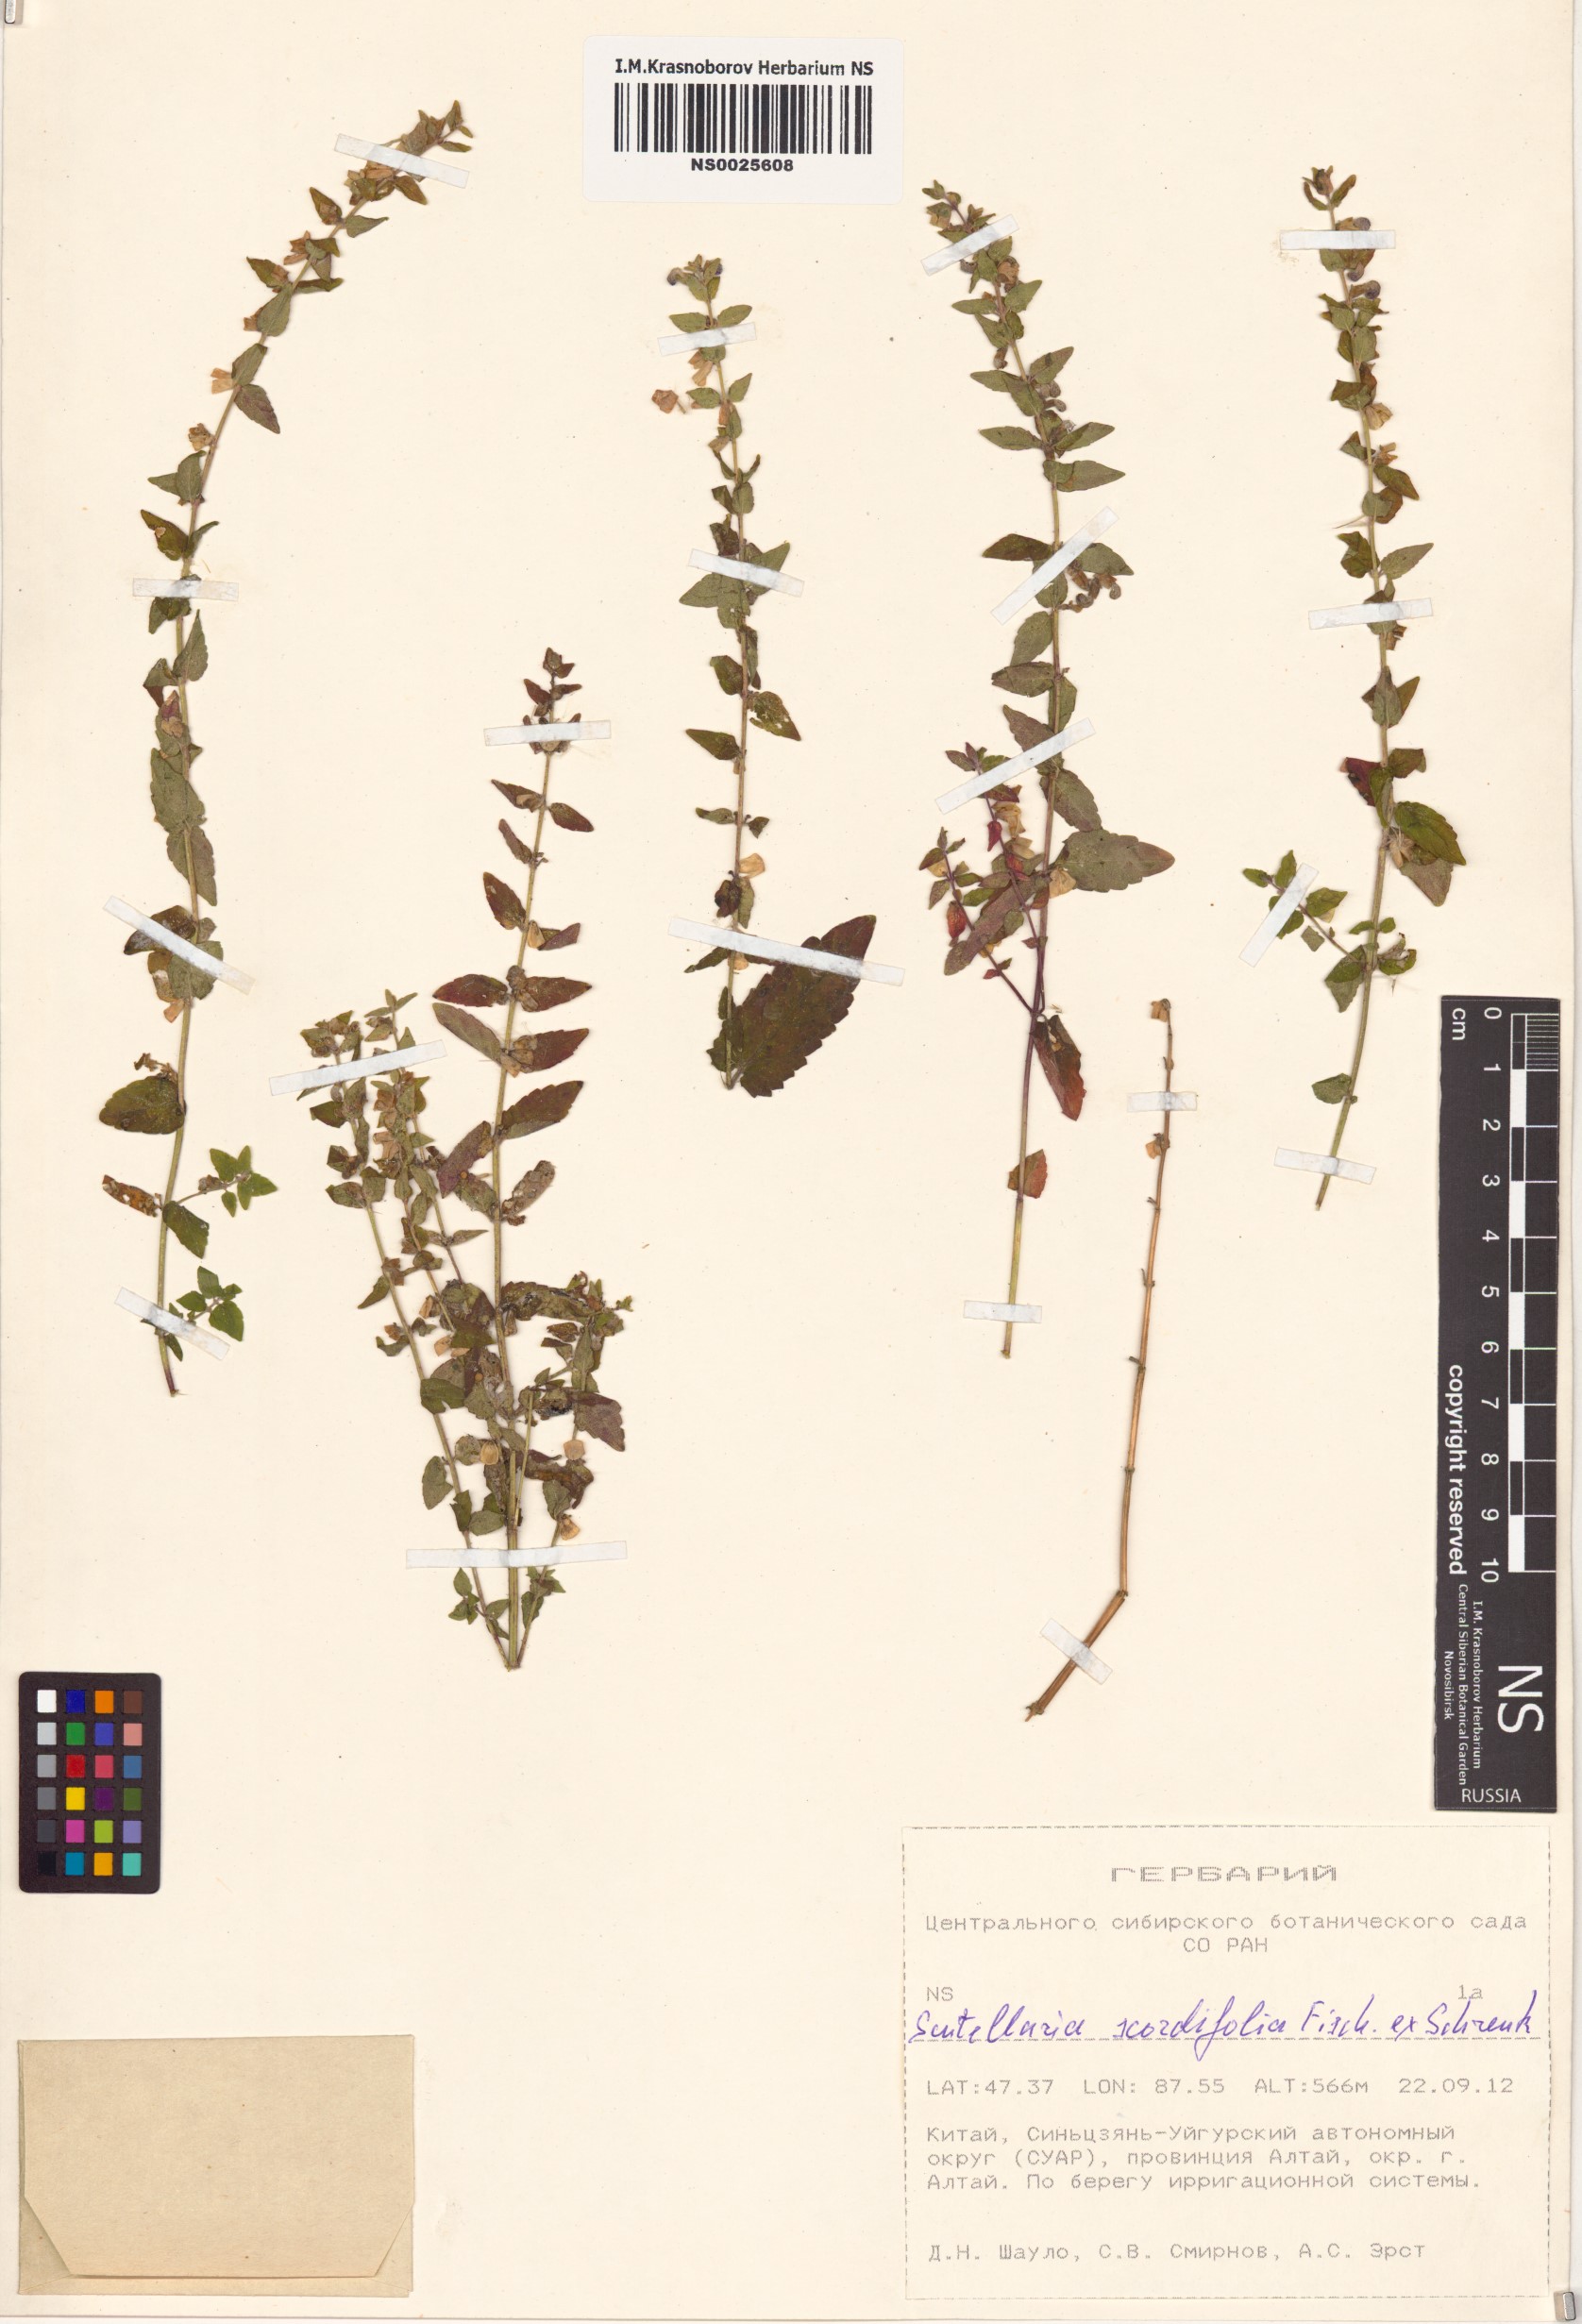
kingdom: Plantae
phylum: Tracheophyta
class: Magnoliopsida
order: Lamiales
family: Lamiaceae
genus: Scutellaria
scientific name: Scutellaria scordiifolia
